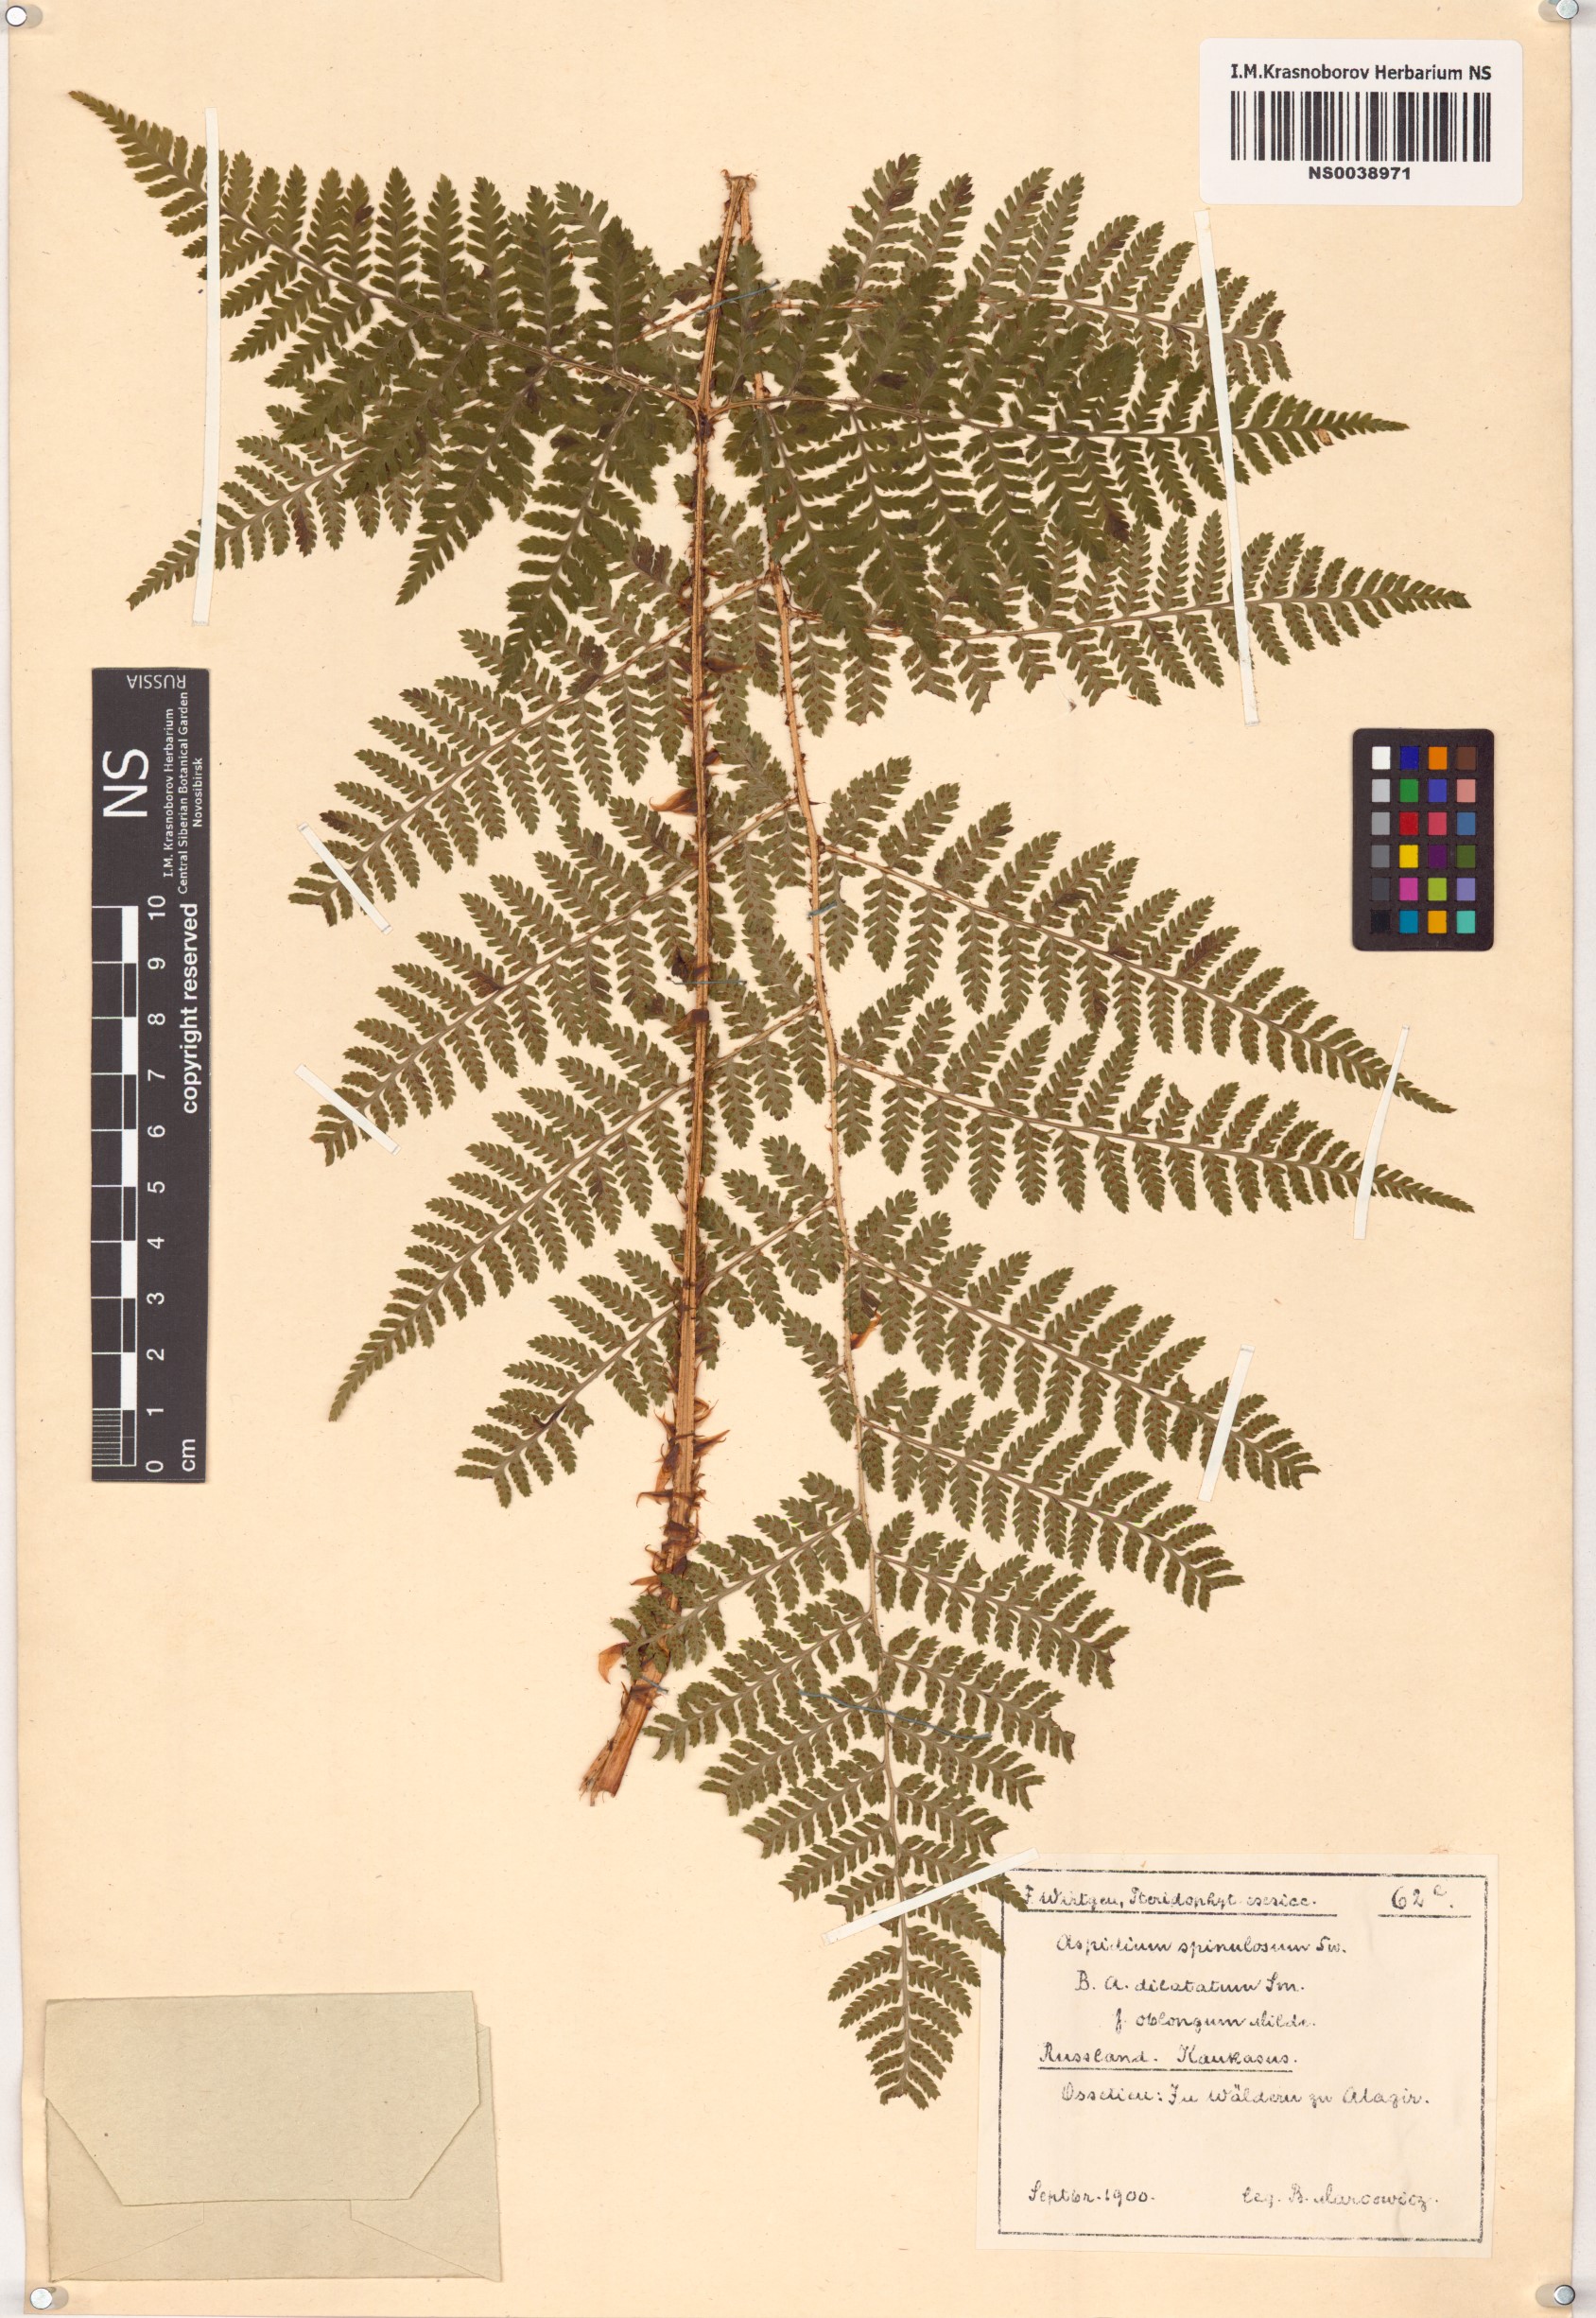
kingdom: Plantae
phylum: Tracheophyta
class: Polypodiopsida
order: Polypodiales
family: Dryopteridaceae
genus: Dryopteris
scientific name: Dryopteris carthusiana
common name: Narrow buckler-fern
